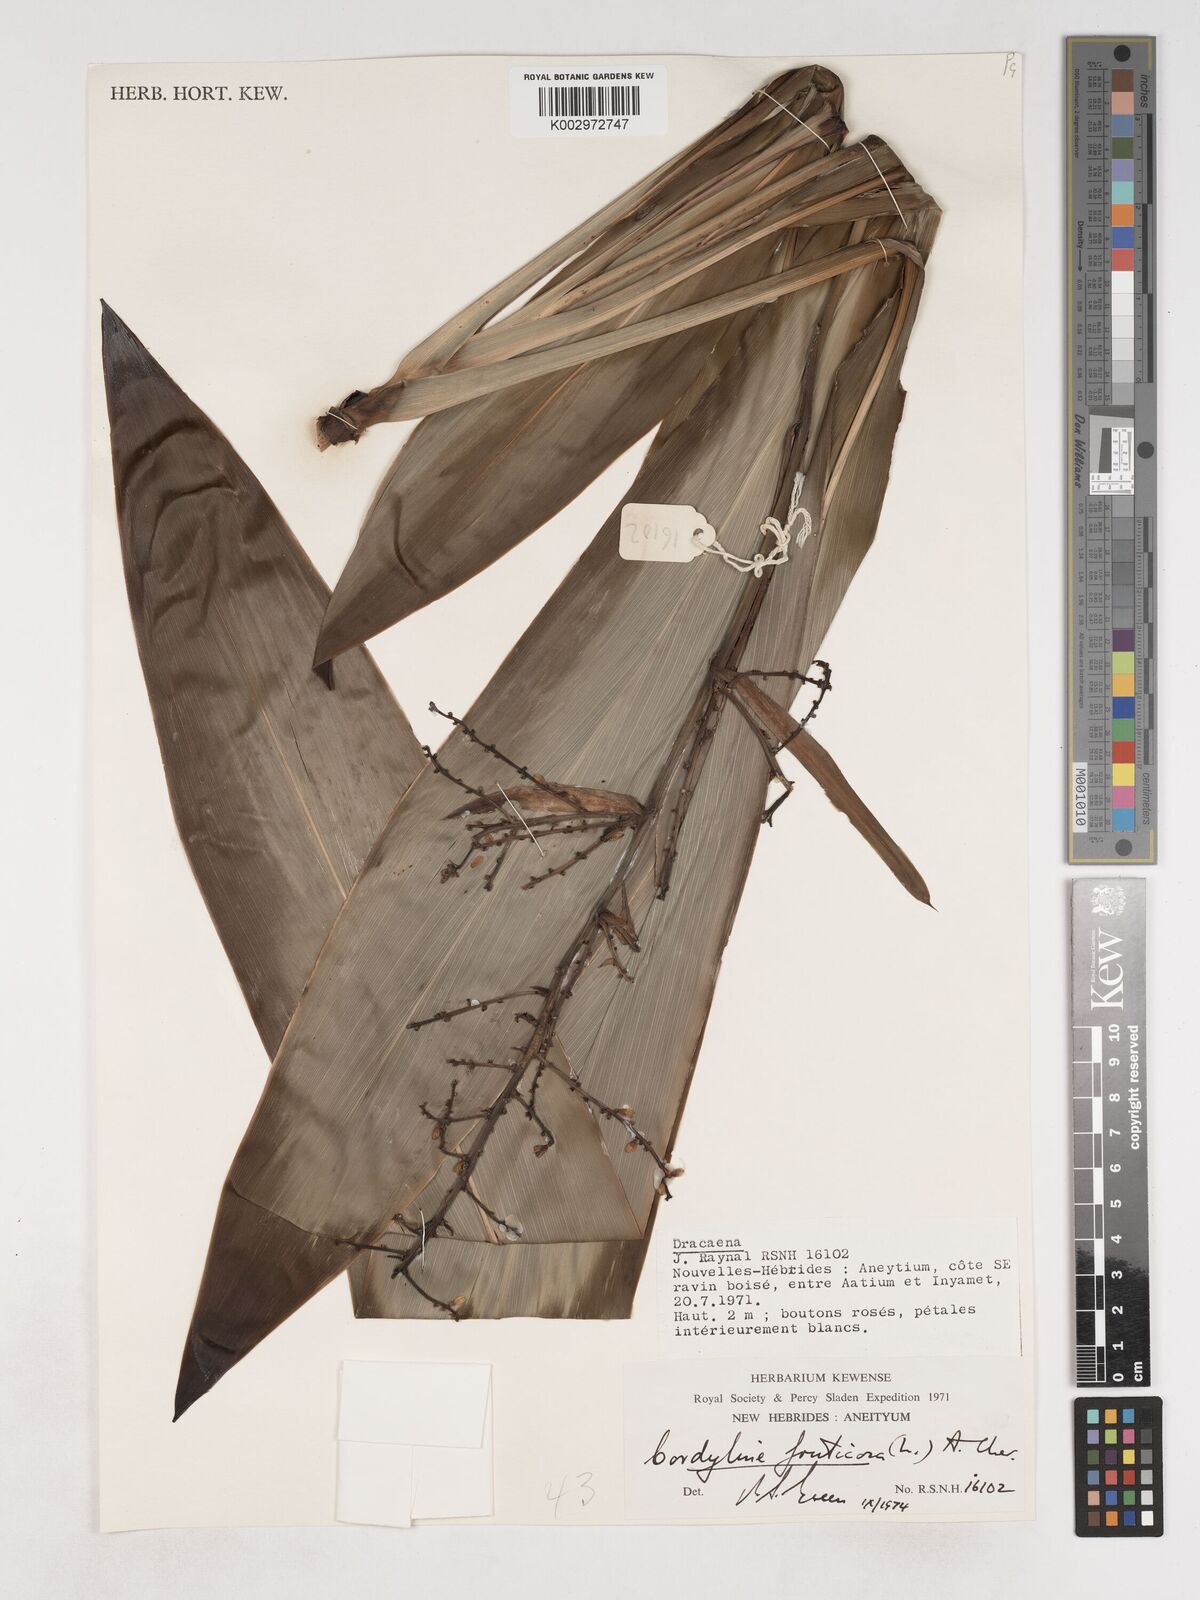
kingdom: Plantae
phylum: Tracheophyta
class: Liliopsida
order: Asparagales
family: Asparagaceae
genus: Cordyline
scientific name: Cordyline fruticosa
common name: Good-luck-plant
